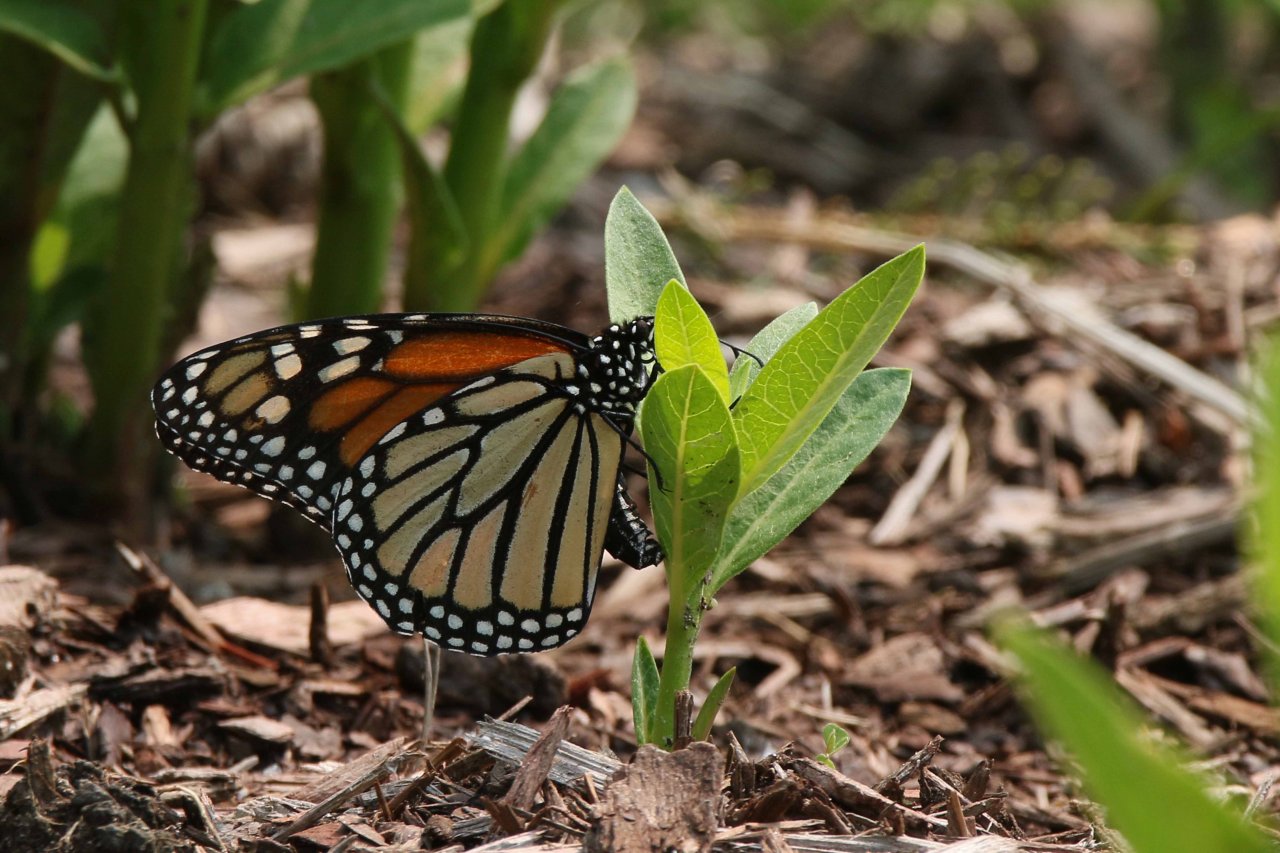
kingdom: Animalia
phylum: Arthropoda
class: Insecta
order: Lepidoptera
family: Nymphalidae
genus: Danaus
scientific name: Danaus plexippus
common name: Monarch
